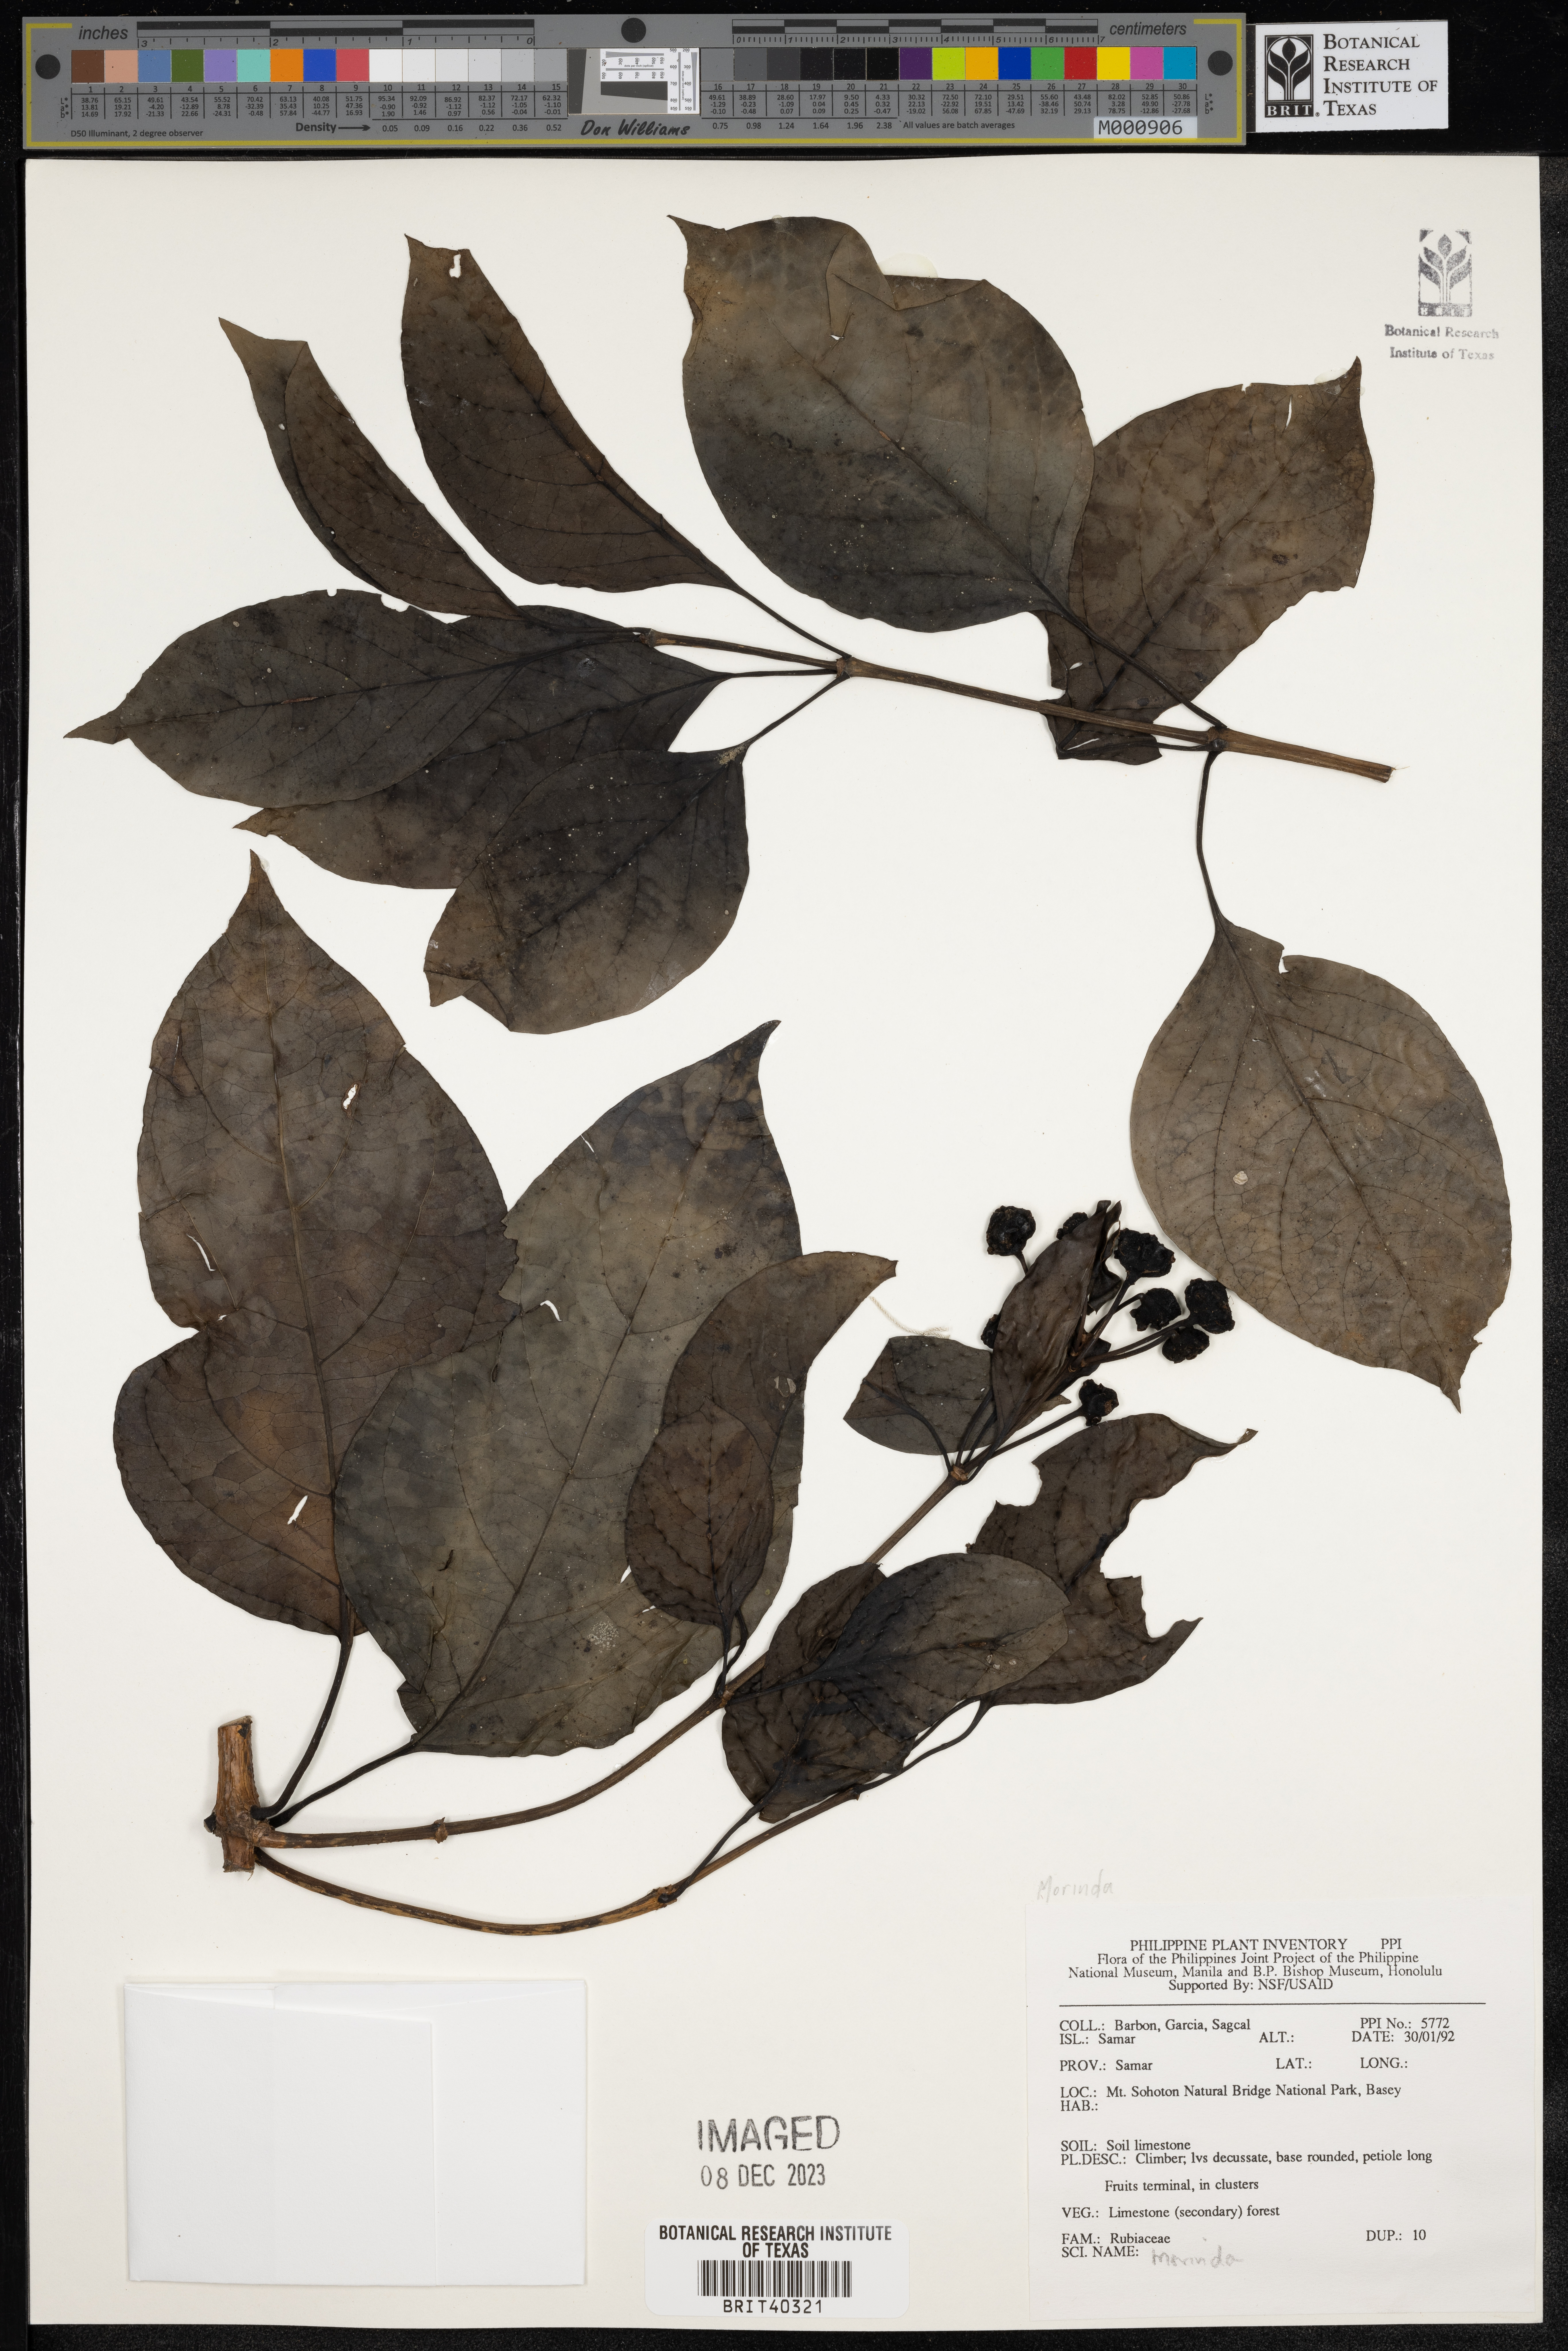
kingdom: Plantae
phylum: Tracheophyta
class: Magnoliopsida
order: Gentianales
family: Rubiaceae
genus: Morinda
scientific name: Morinda
